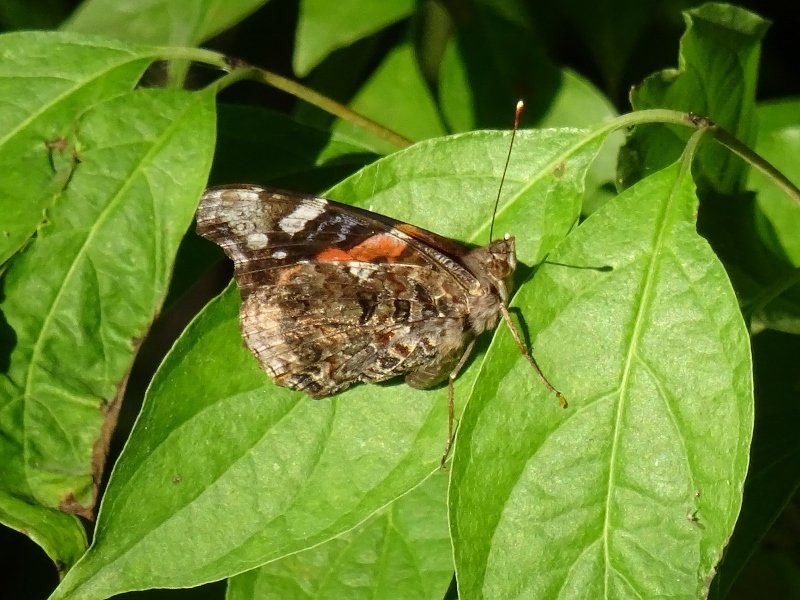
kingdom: Animalia
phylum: Arthropoda
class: Insecta
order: Lepidoptera
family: Nymphalidae
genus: Vanessa
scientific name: Vanessa atalanta
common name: Red Admiral
